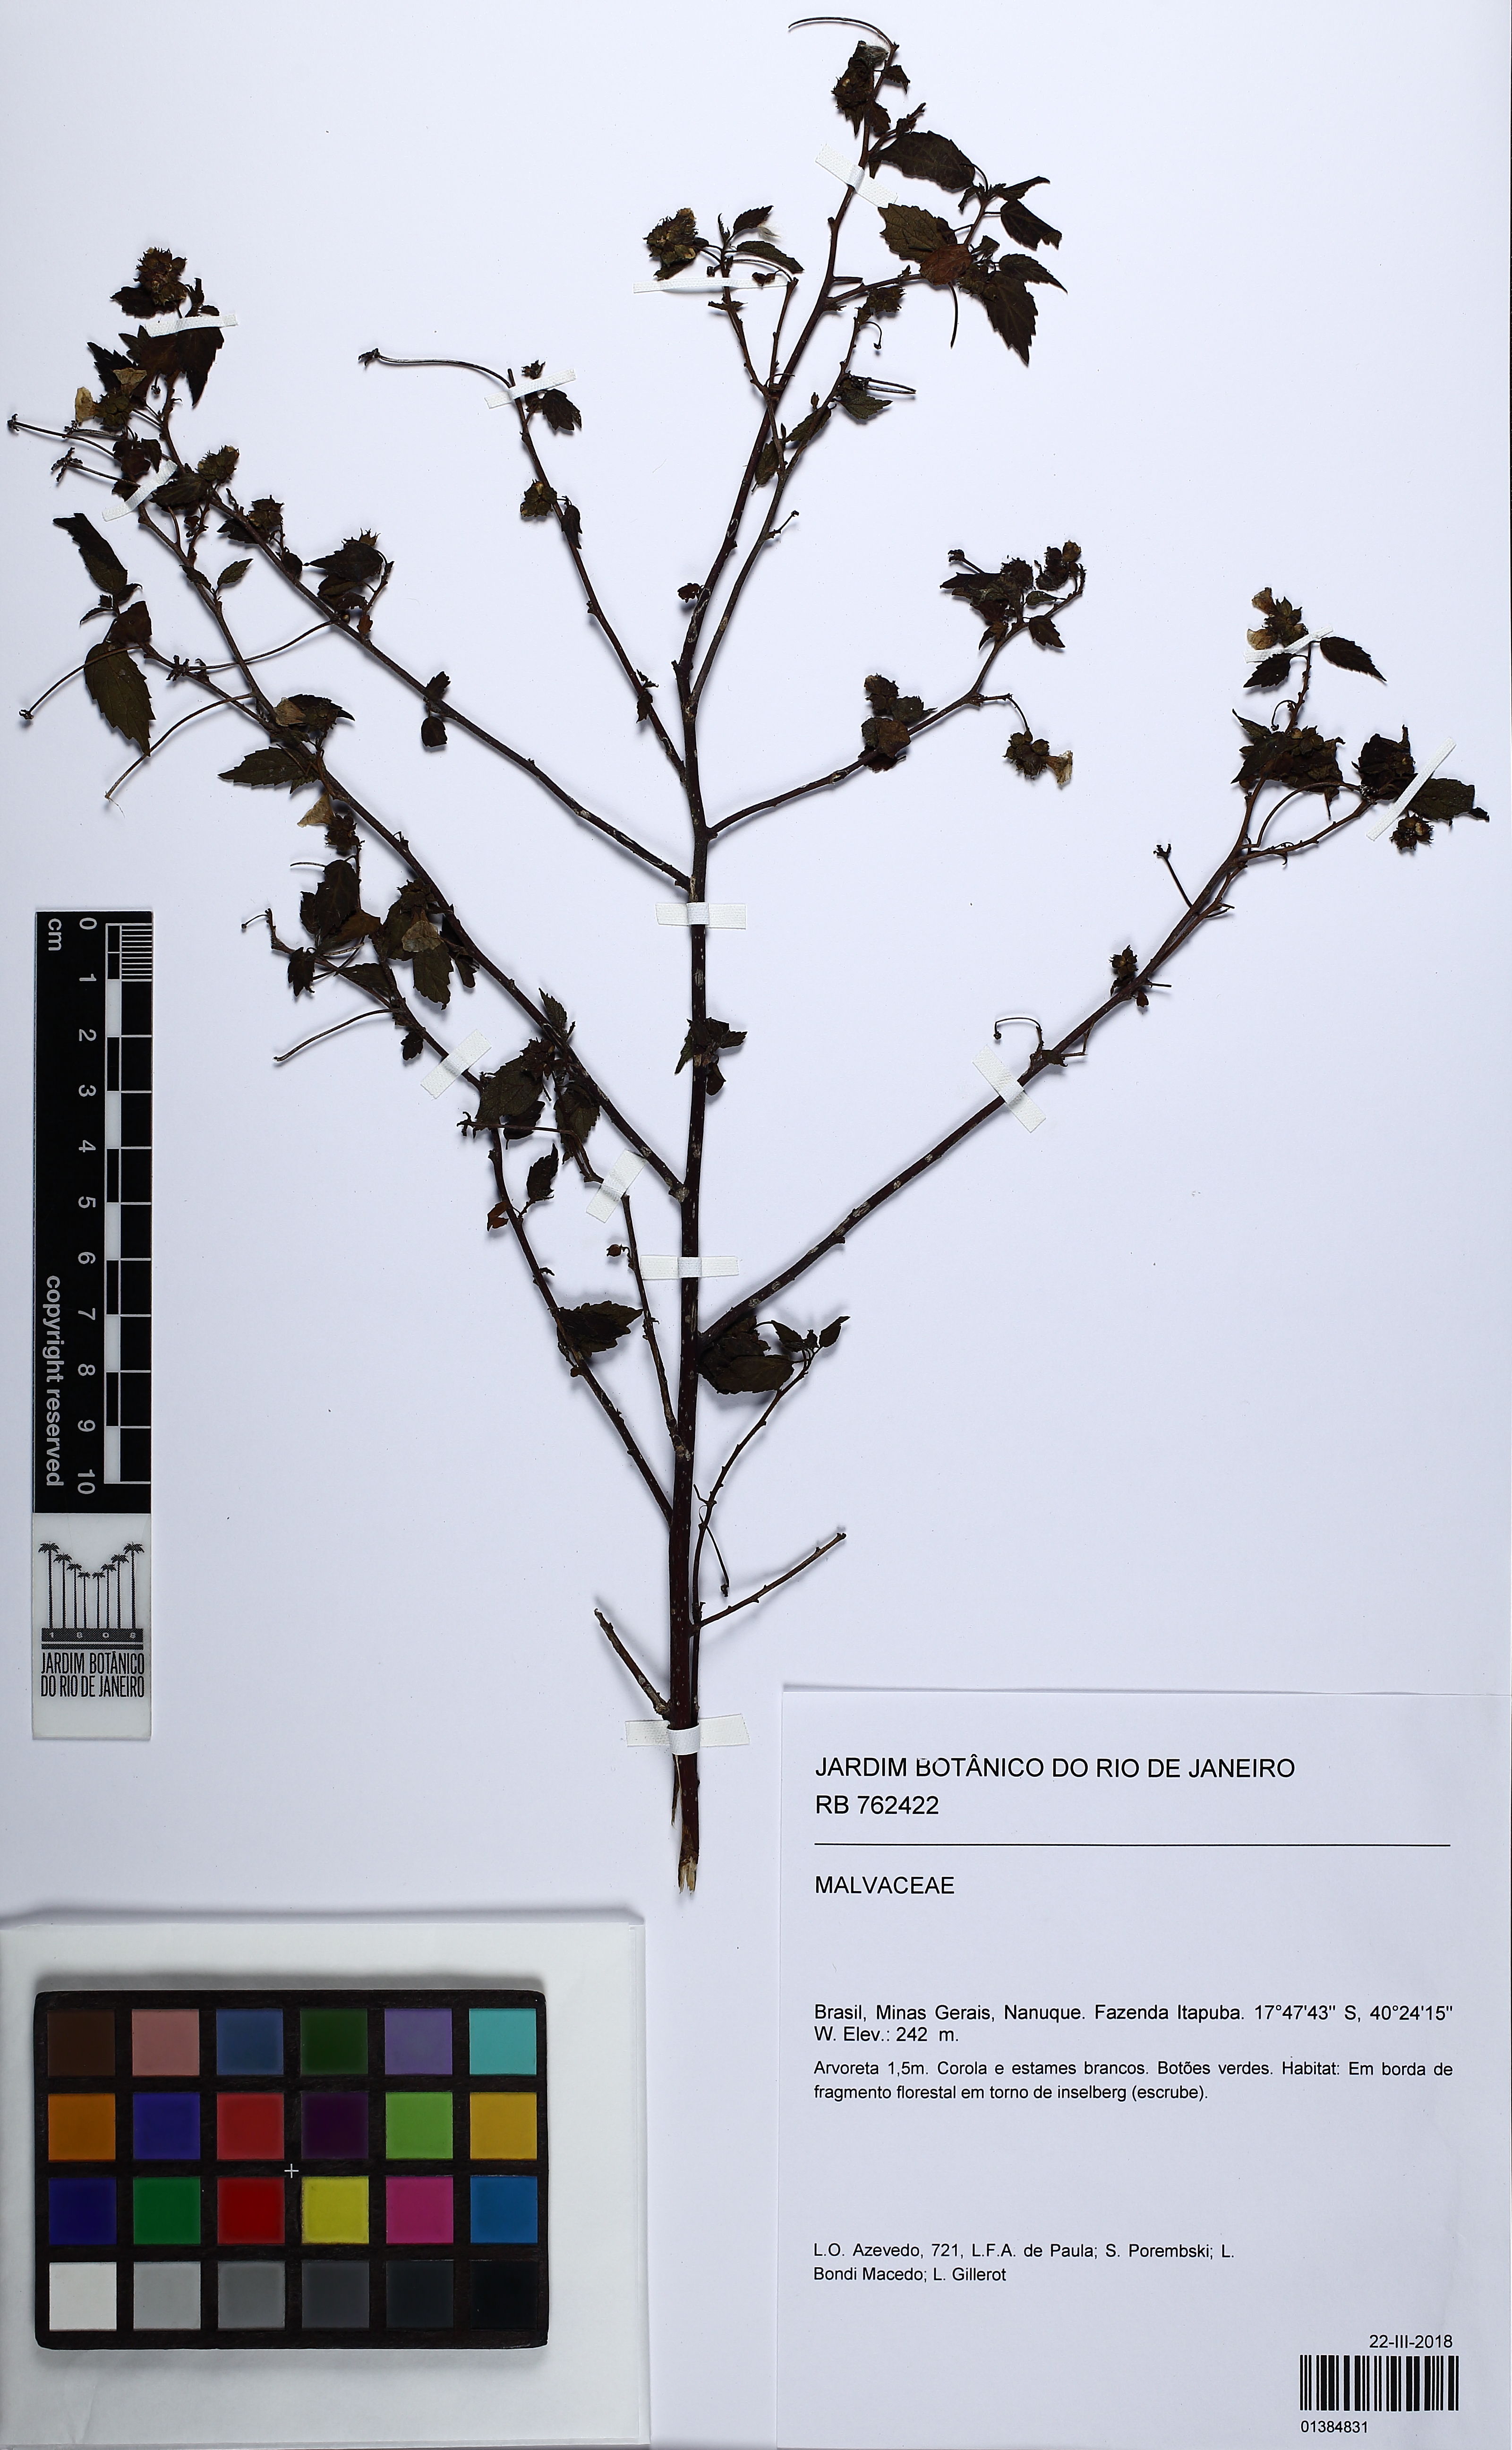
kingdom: Plantae
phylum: Tracheophyta
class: Magnoliopsida
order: Malvales
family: Malvaceae
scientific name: Malvaceae
